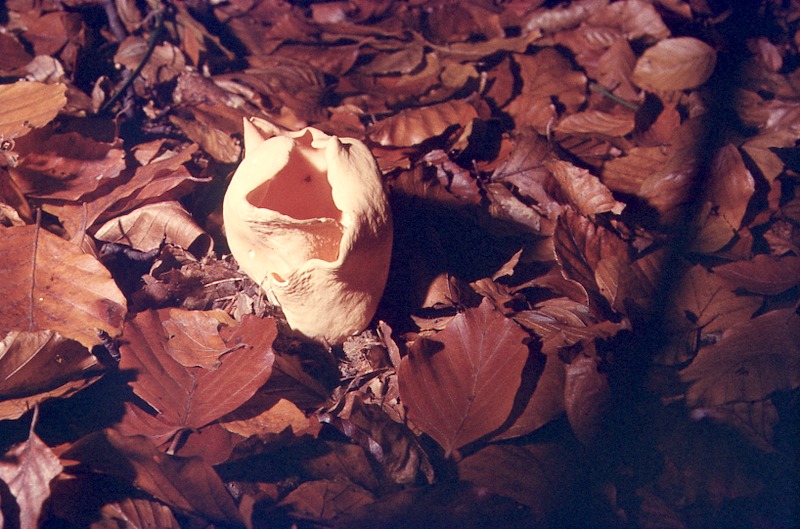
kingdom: Fungi
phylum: Ascomycota
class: Pezizomycetes
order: Pezizales
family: Otideaceae
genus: Otidea
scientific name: Otidea cantharella
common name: Cupped ear
